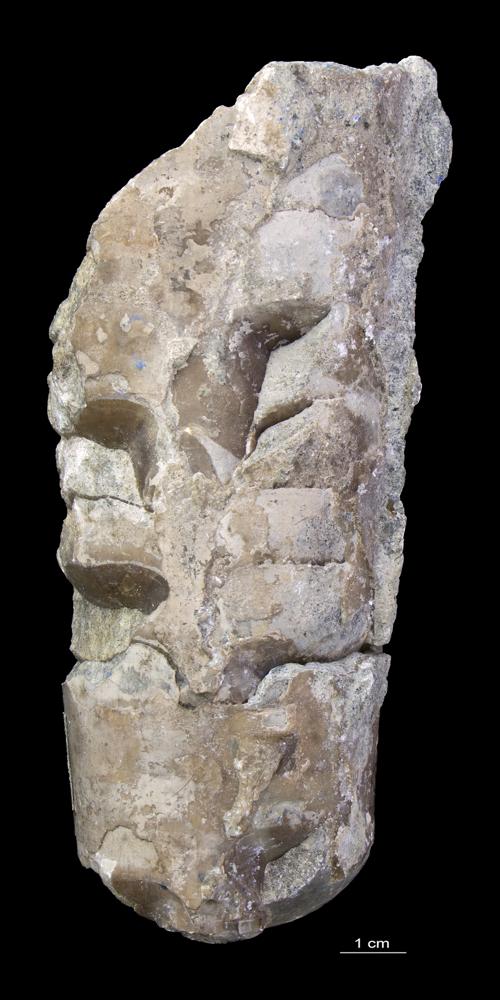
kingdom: Animalia
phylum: Mollusca
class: Cephalopoda
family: Estonioceratidae
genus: Estonioceras
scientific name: Estonioceras
